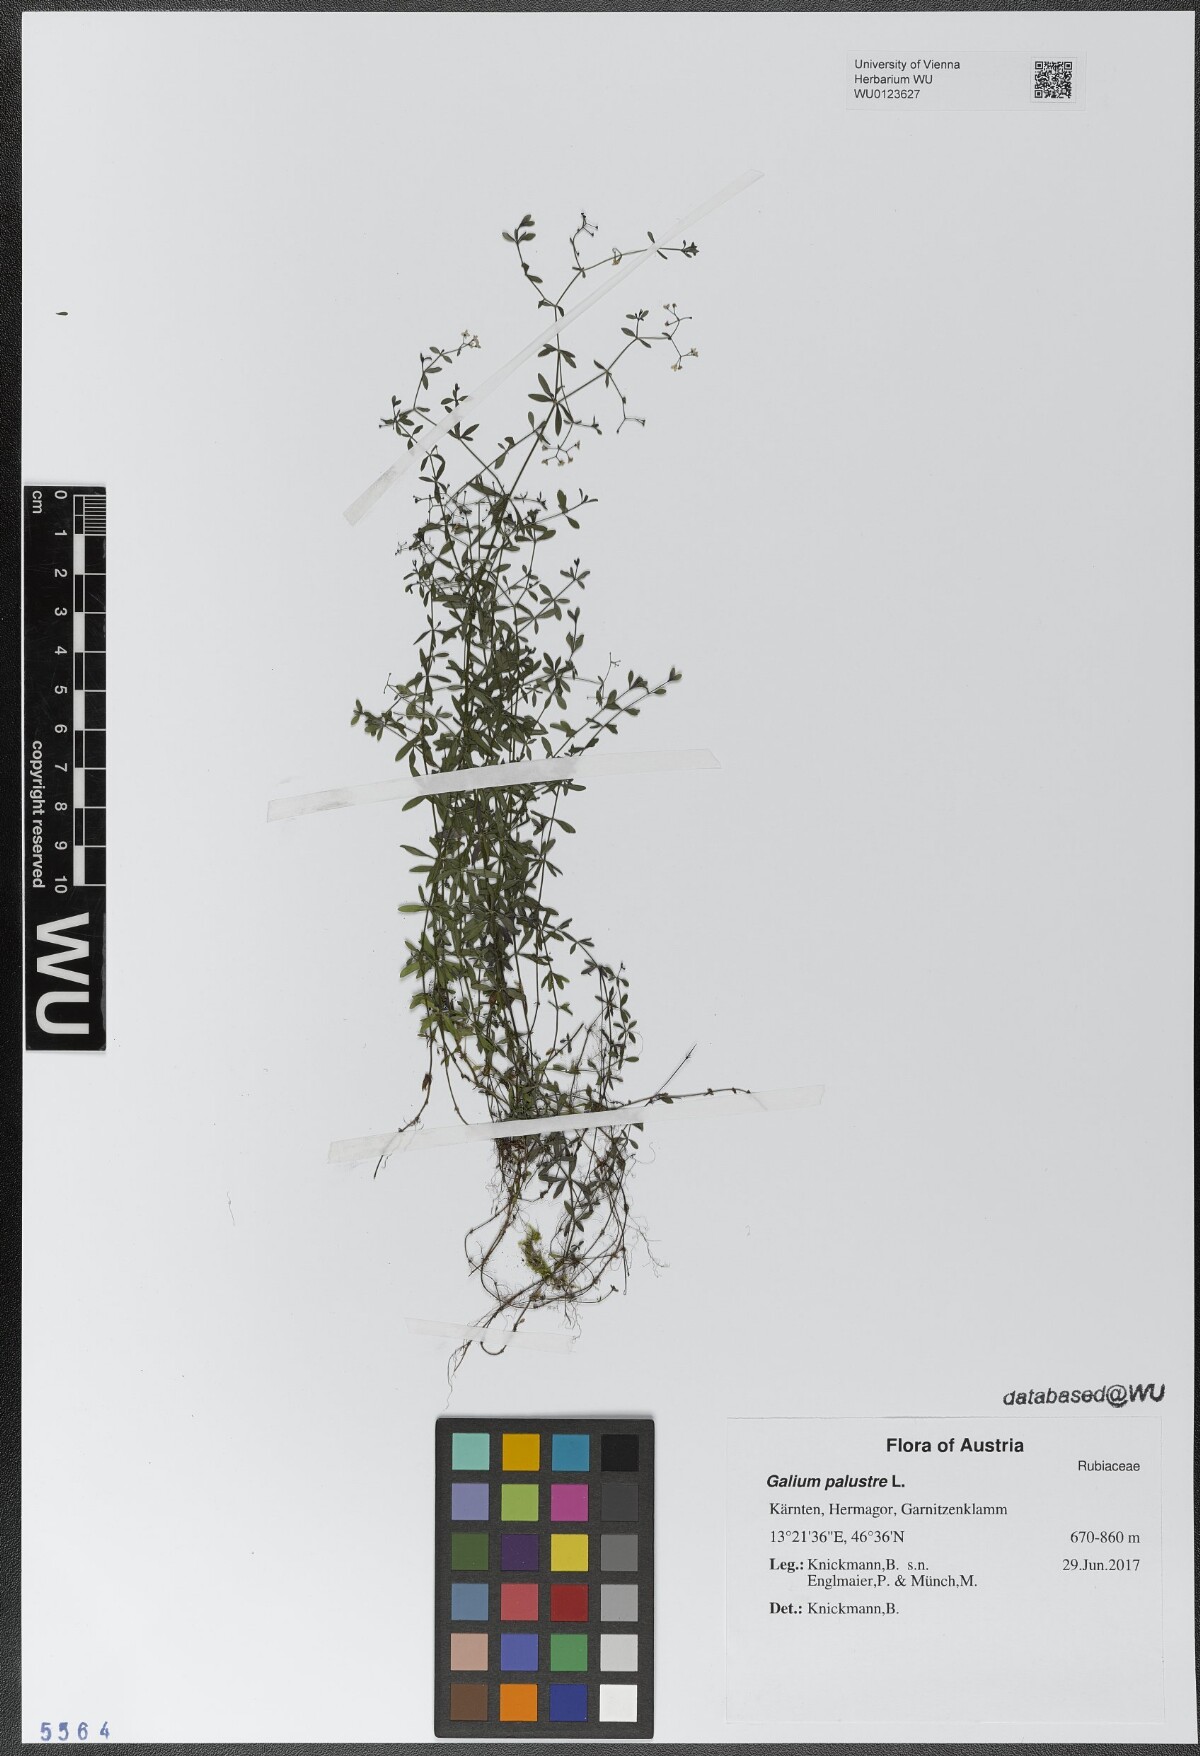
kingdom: Plantae
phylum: Tracheophyta
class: Magnoliopsida
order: Gentianales
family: Rubiaceae
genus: Galium
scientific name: Galium palustre
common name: Common marsh-bedstraw
